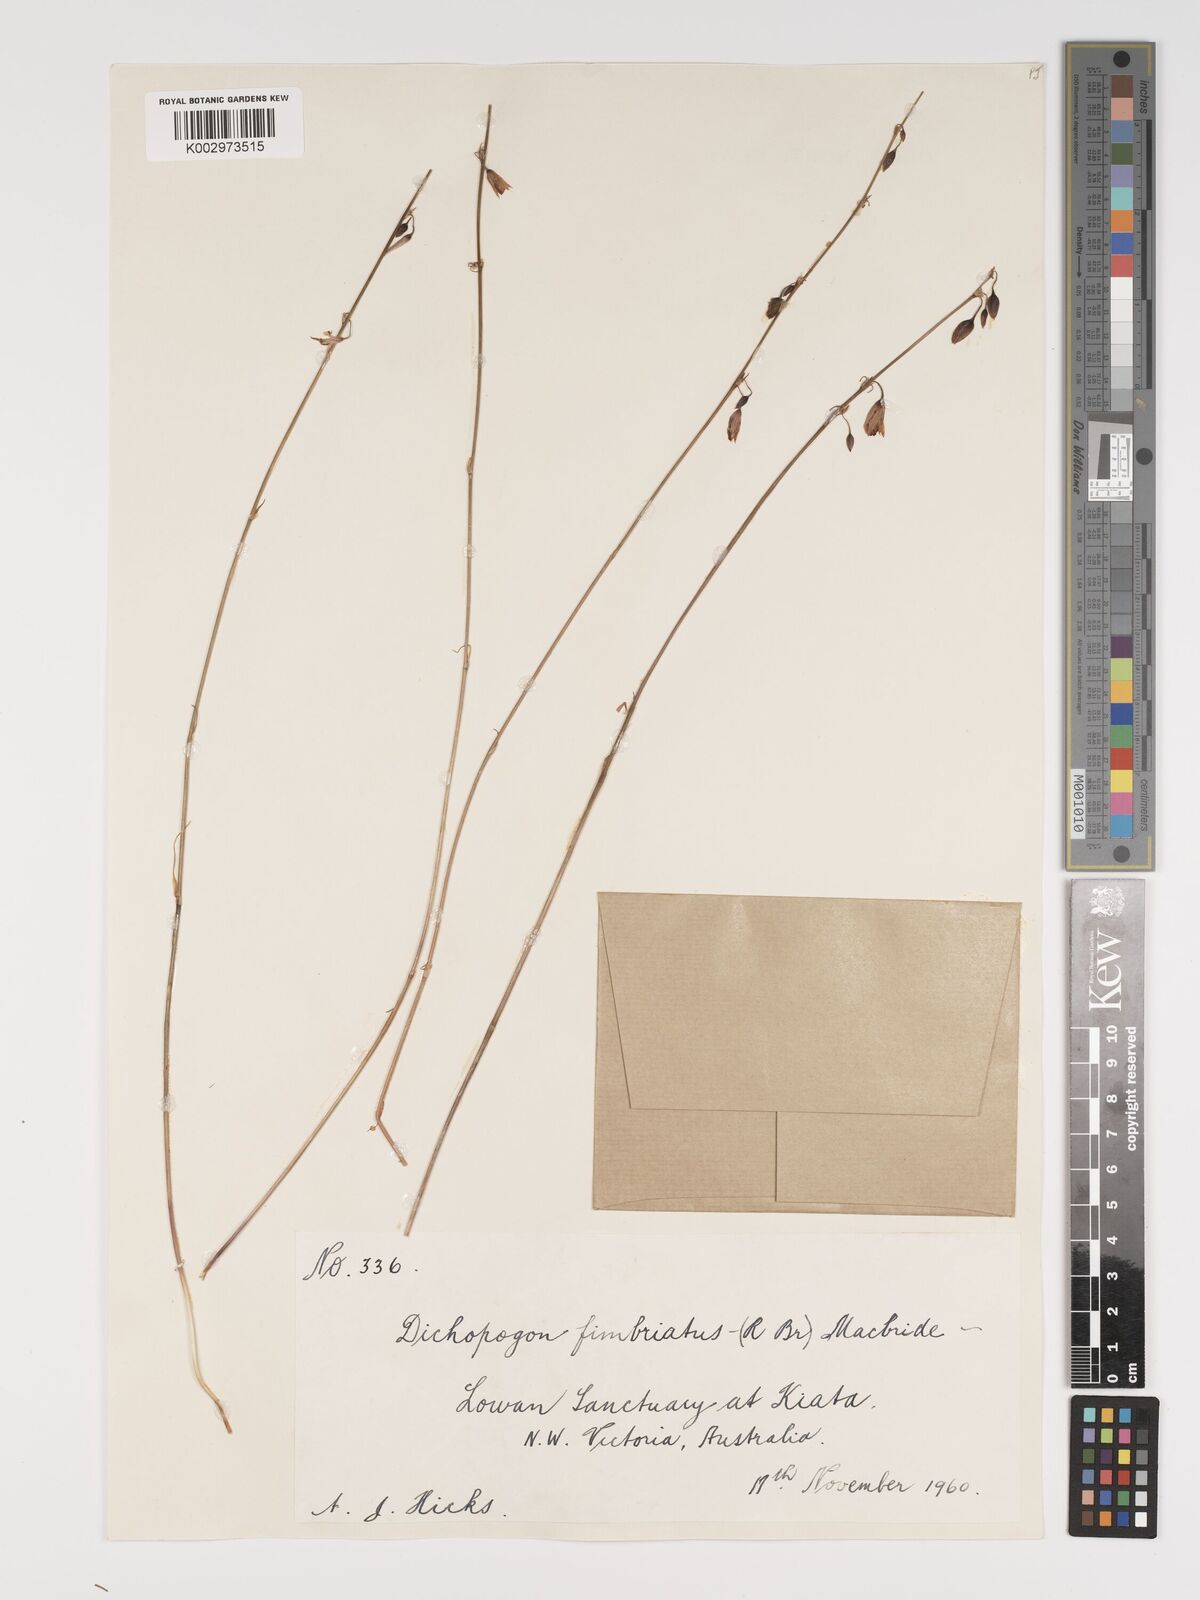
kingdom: Plantae
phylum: Tracheophyta
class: Liliopsida
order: Asparagales
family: Asparagaceae
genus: Dichopogon
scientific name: Dichopogon fimbriatus
